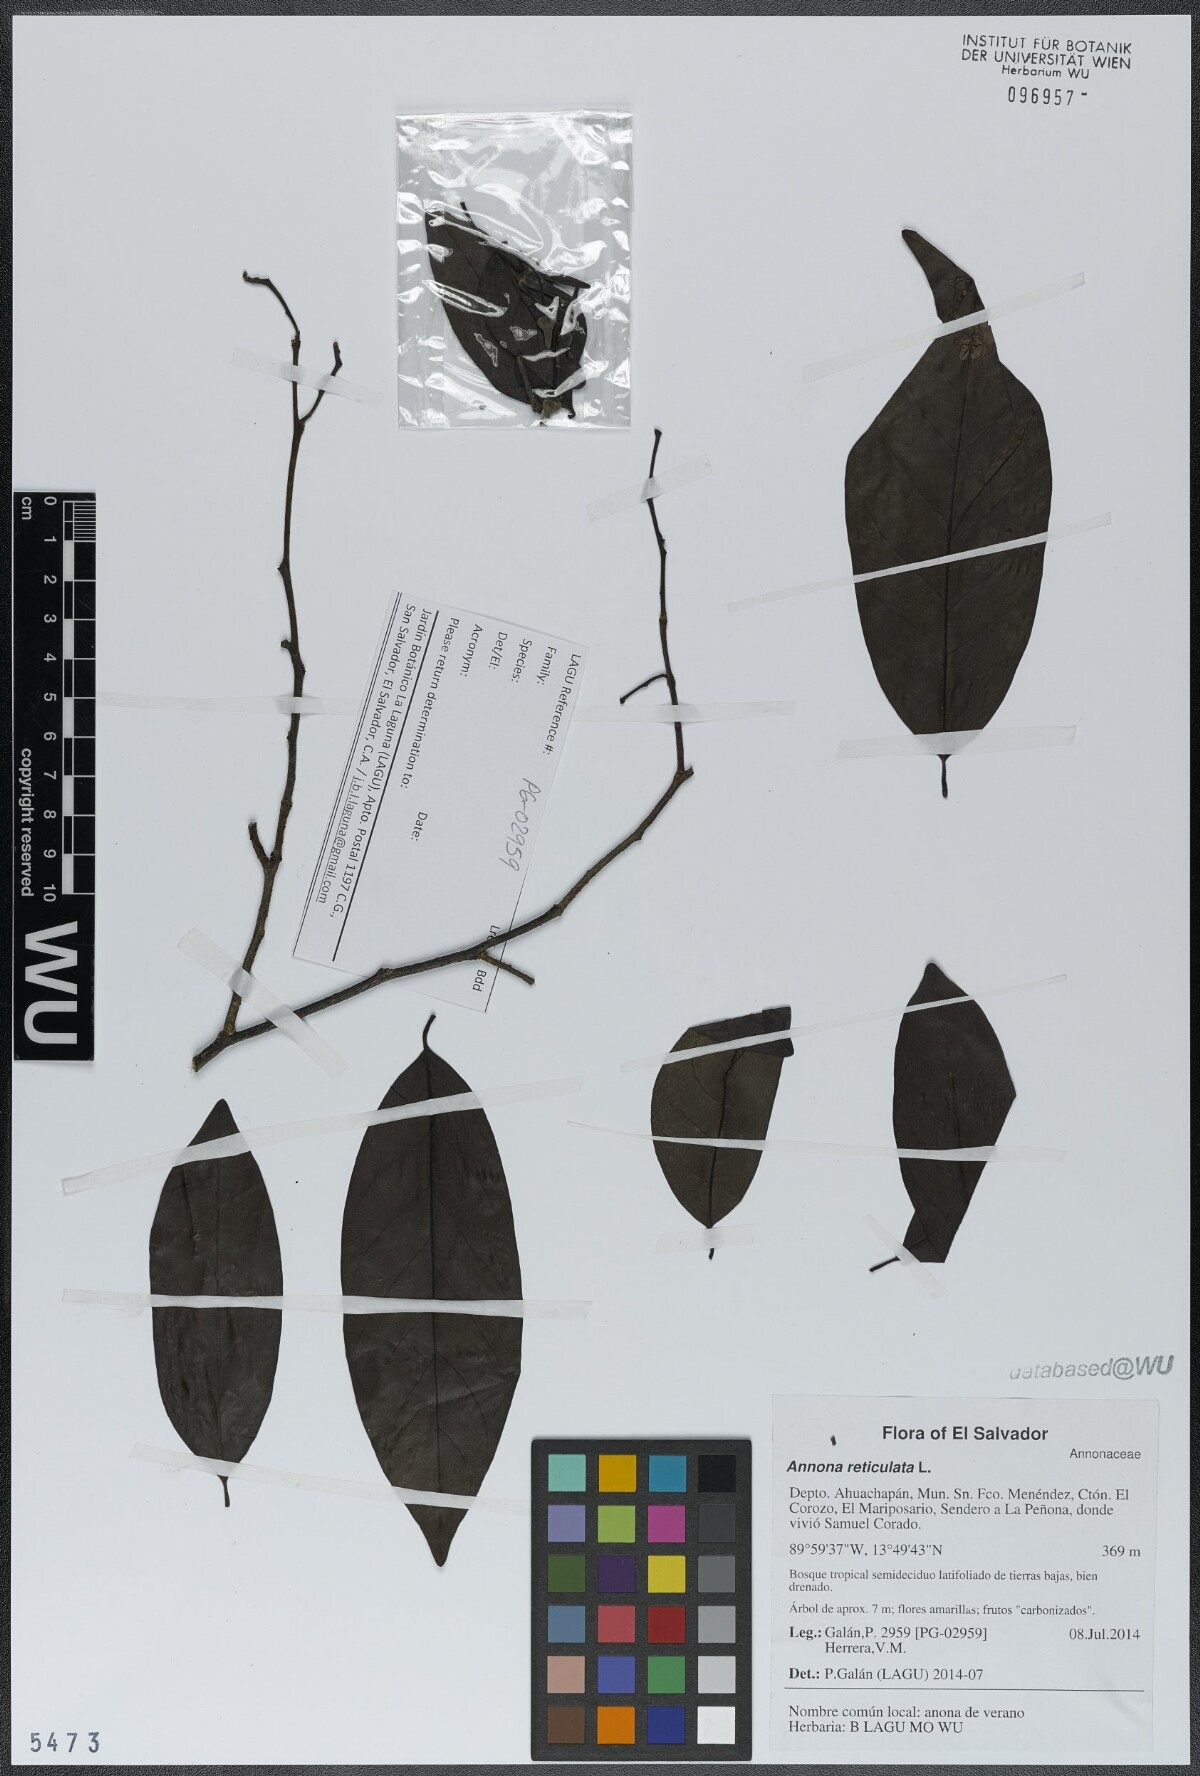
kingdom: Plantae
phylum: Tracheophyta
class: Magnoliopsida
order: Magnoliales
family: Annonaceae
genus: Annona
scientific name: Annona reticulata
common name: Custard apple
